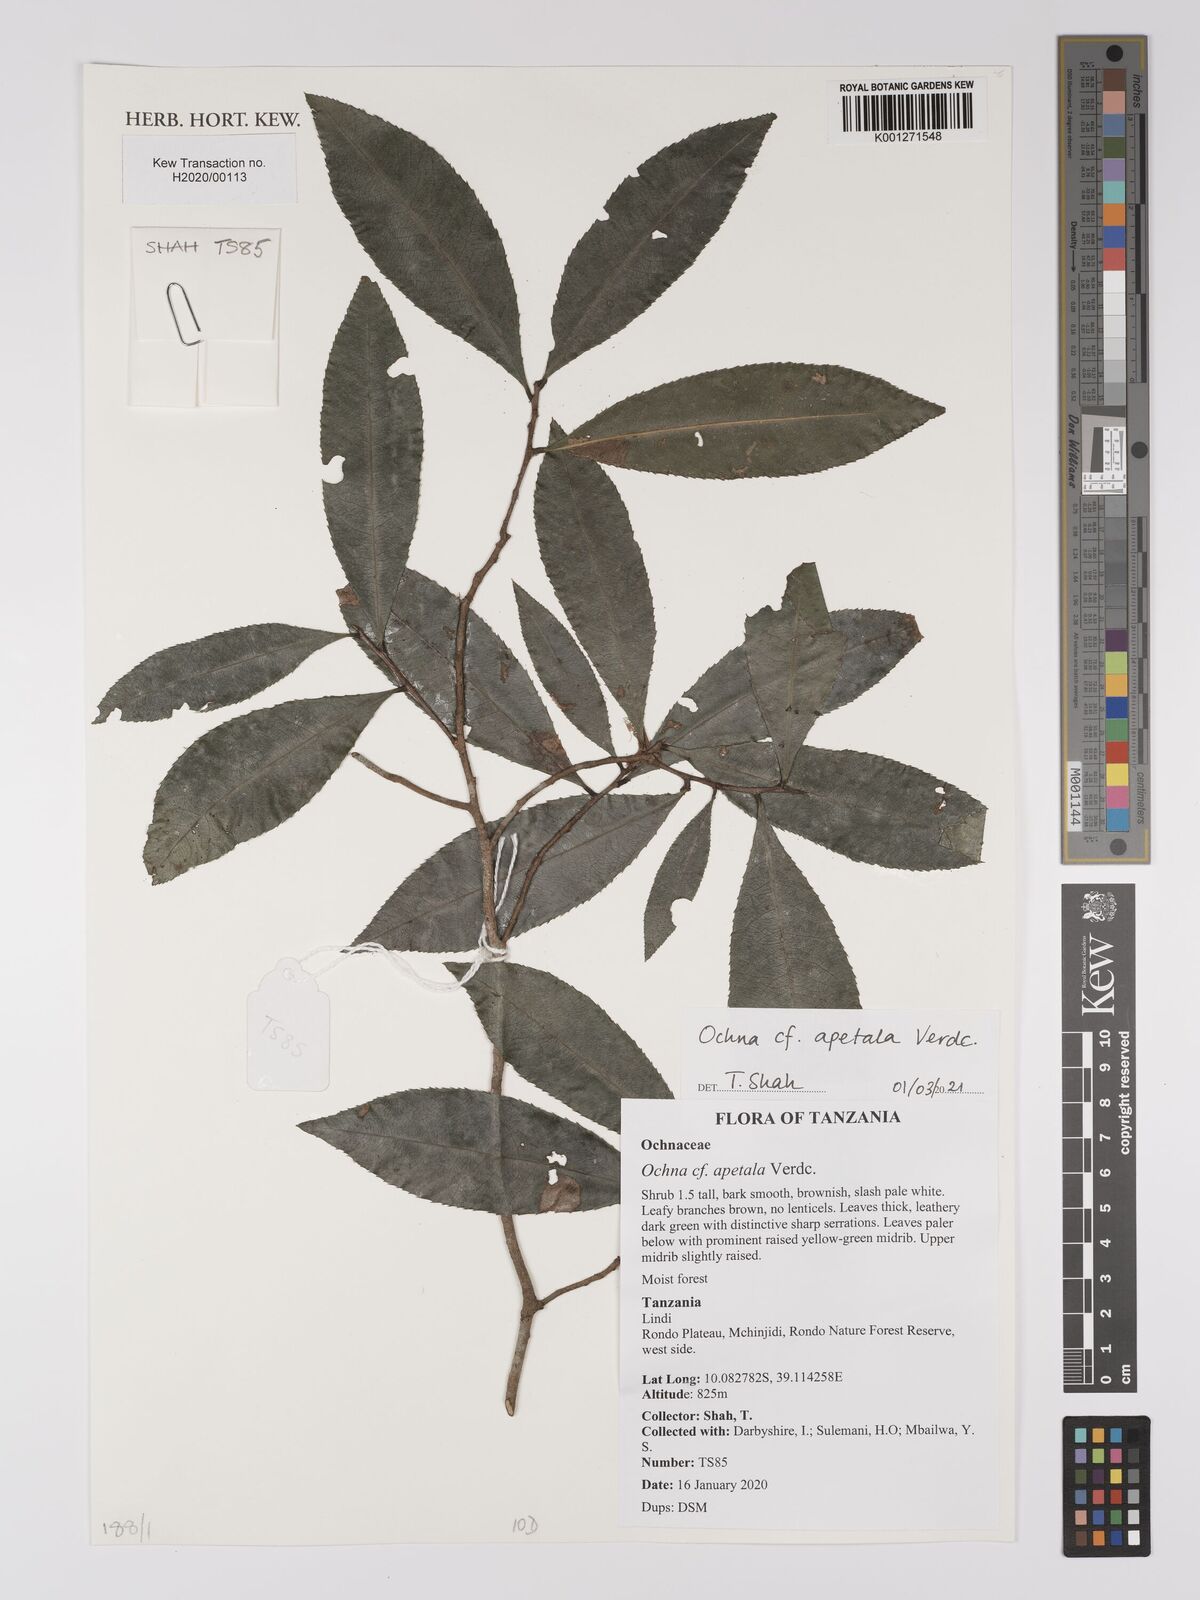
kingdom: Plantae
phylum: Tracheophyta
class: Magnoliopsida
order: Malpighiales
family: Ochnaceae
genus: Ochna
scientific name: Ochna apetala
